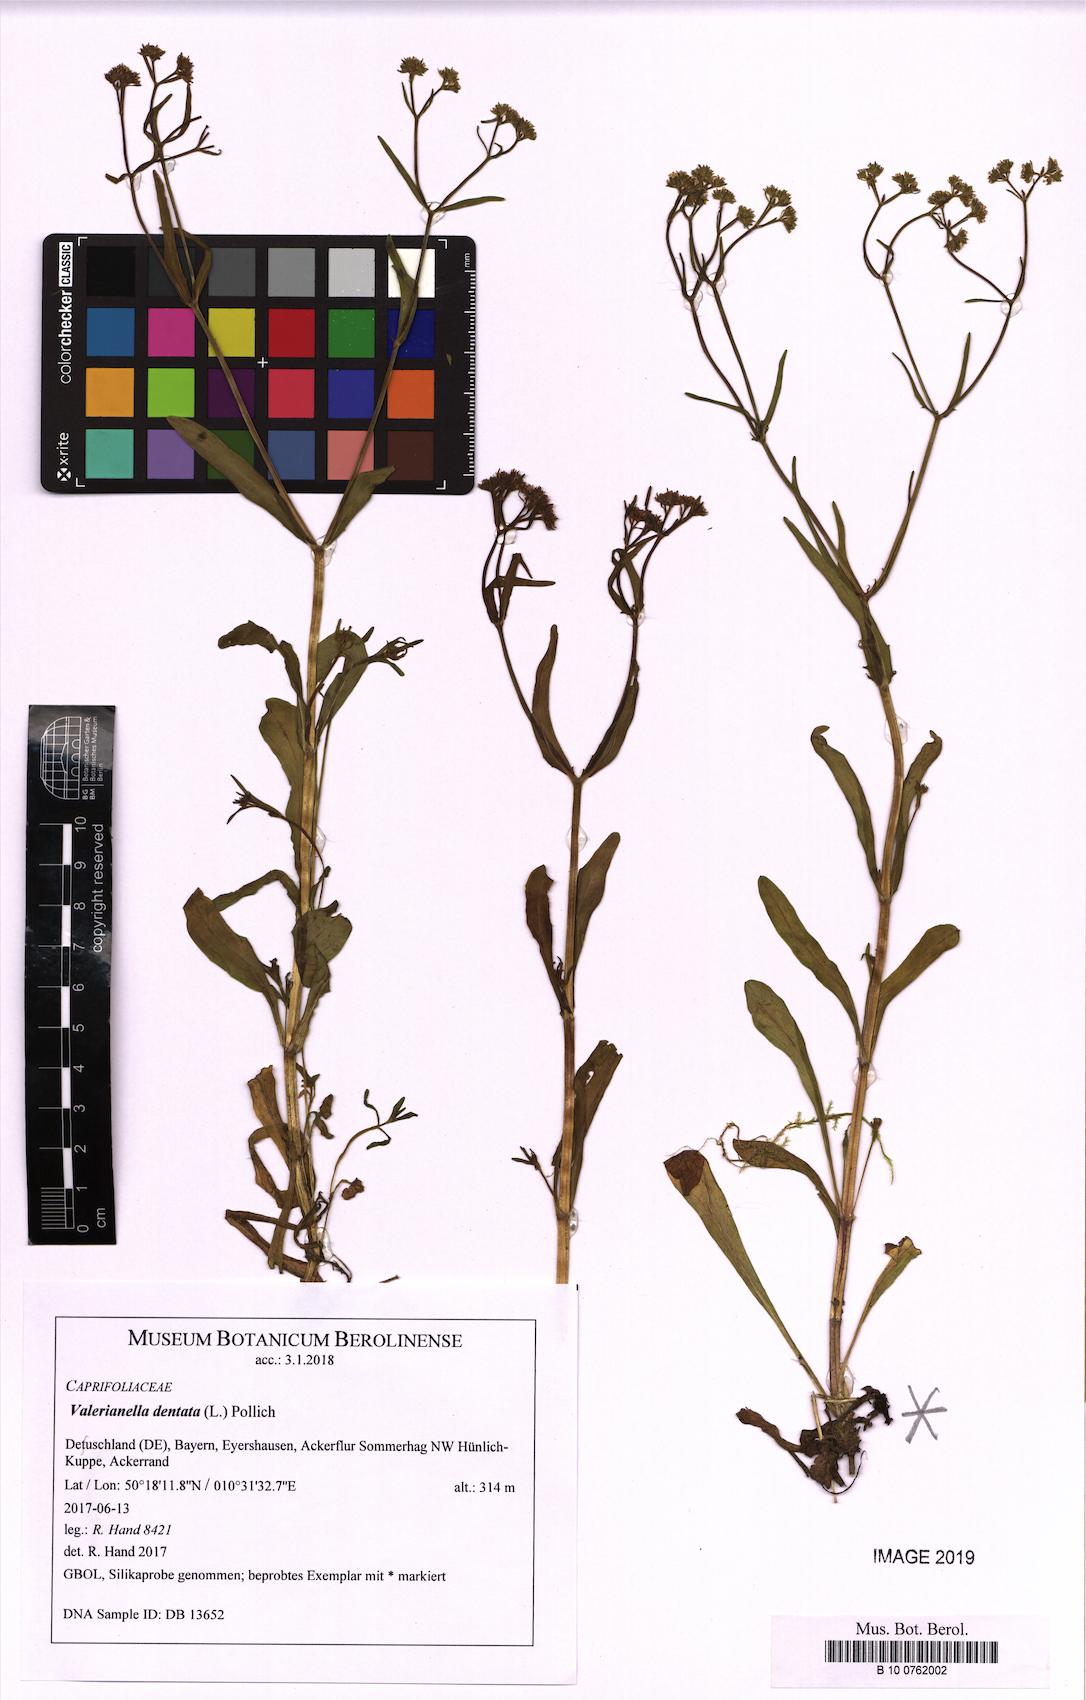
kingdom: Plantae
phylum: Tracheophyta
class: Magnoliopsida
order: Dipsacales
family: Caprifoliaceae
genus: Valerianella
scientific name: Valerianella dentata
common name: Narrow-fruited cornsalad
